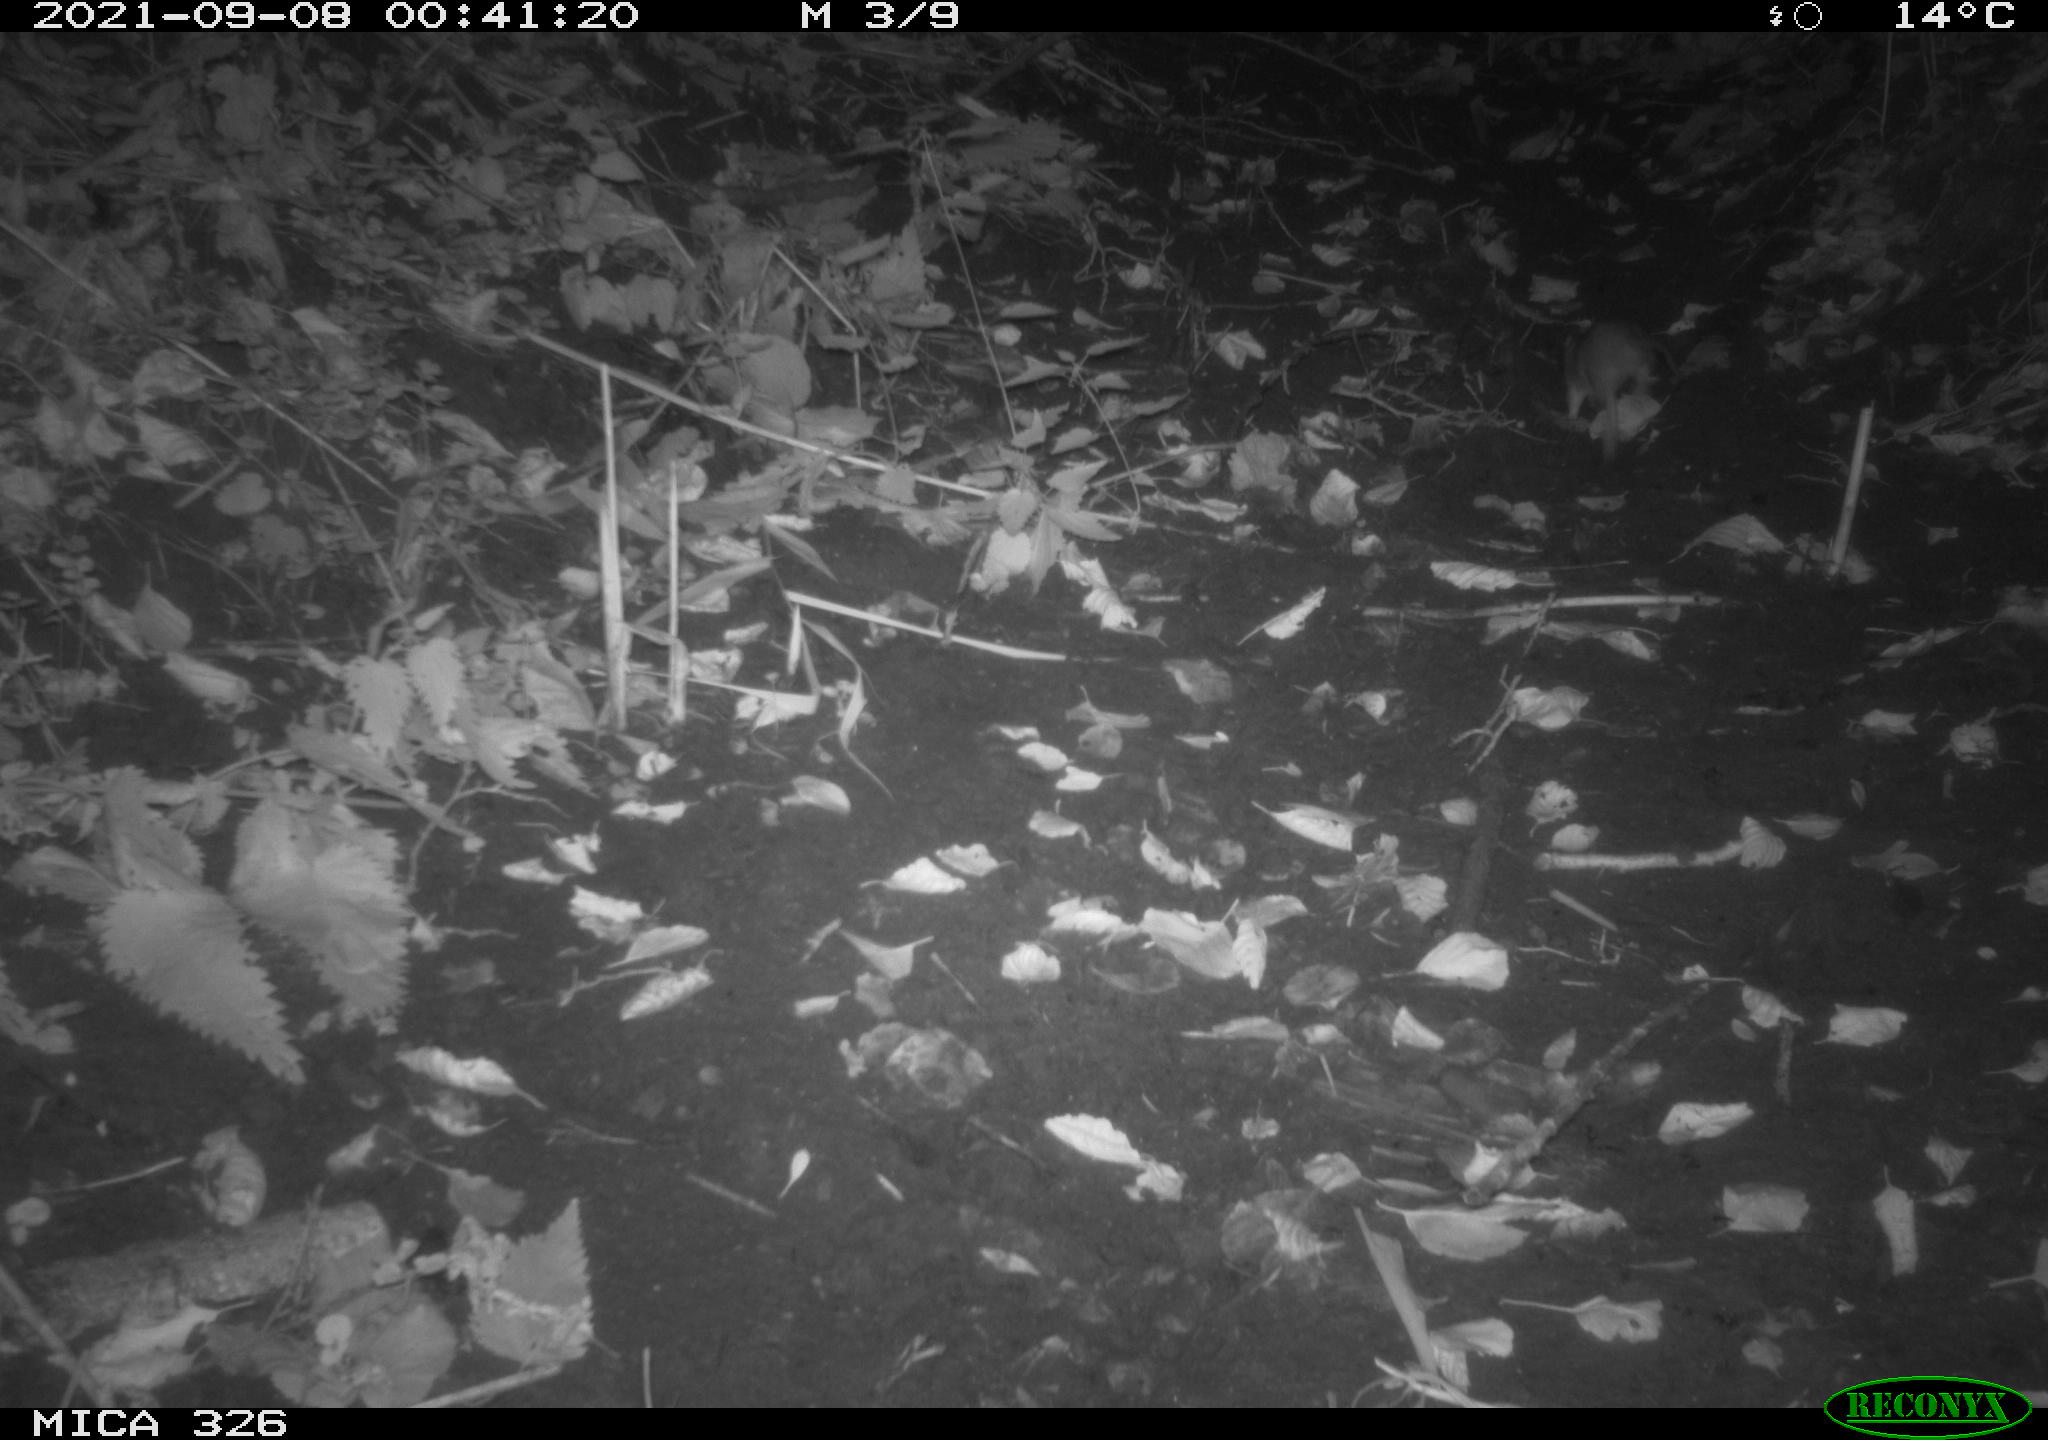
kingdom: Animalia
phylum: Chordata
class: Mammalia
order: Rodentia
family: Myocastoridae
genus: Myocastor
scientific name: Myocastor coypus
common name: Coypu
